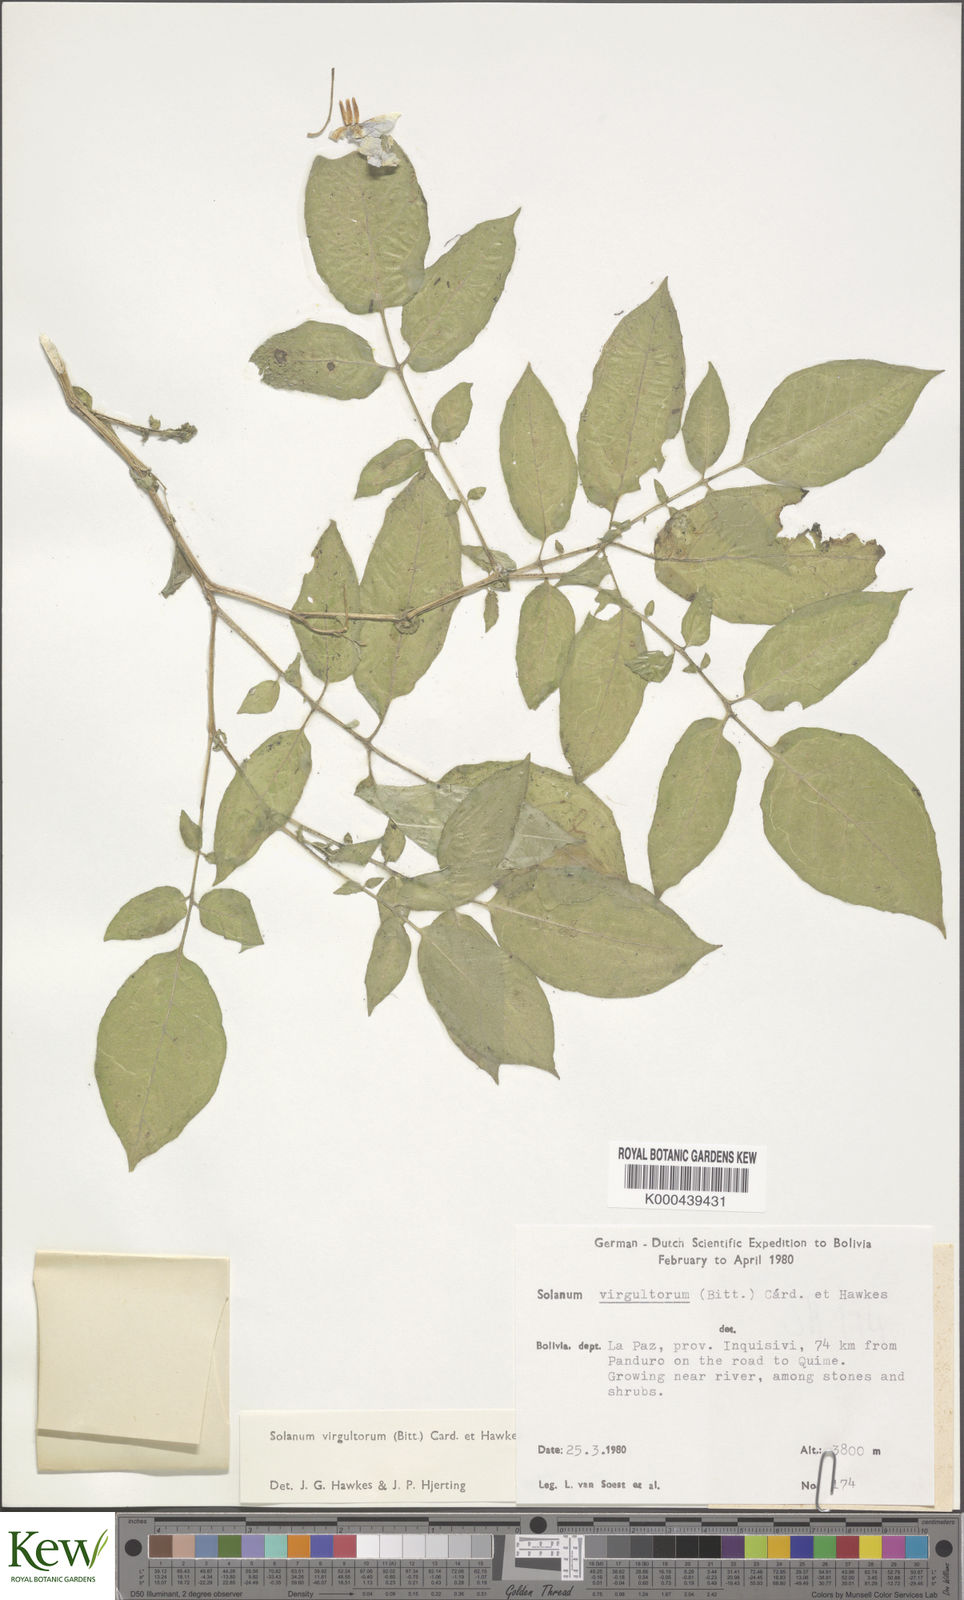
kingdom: Plantae
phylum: Tracheophyta
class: Magnoliopsida
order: Solanales
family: Solanaceae
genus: Solanum
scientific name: Solanum brevicaule
